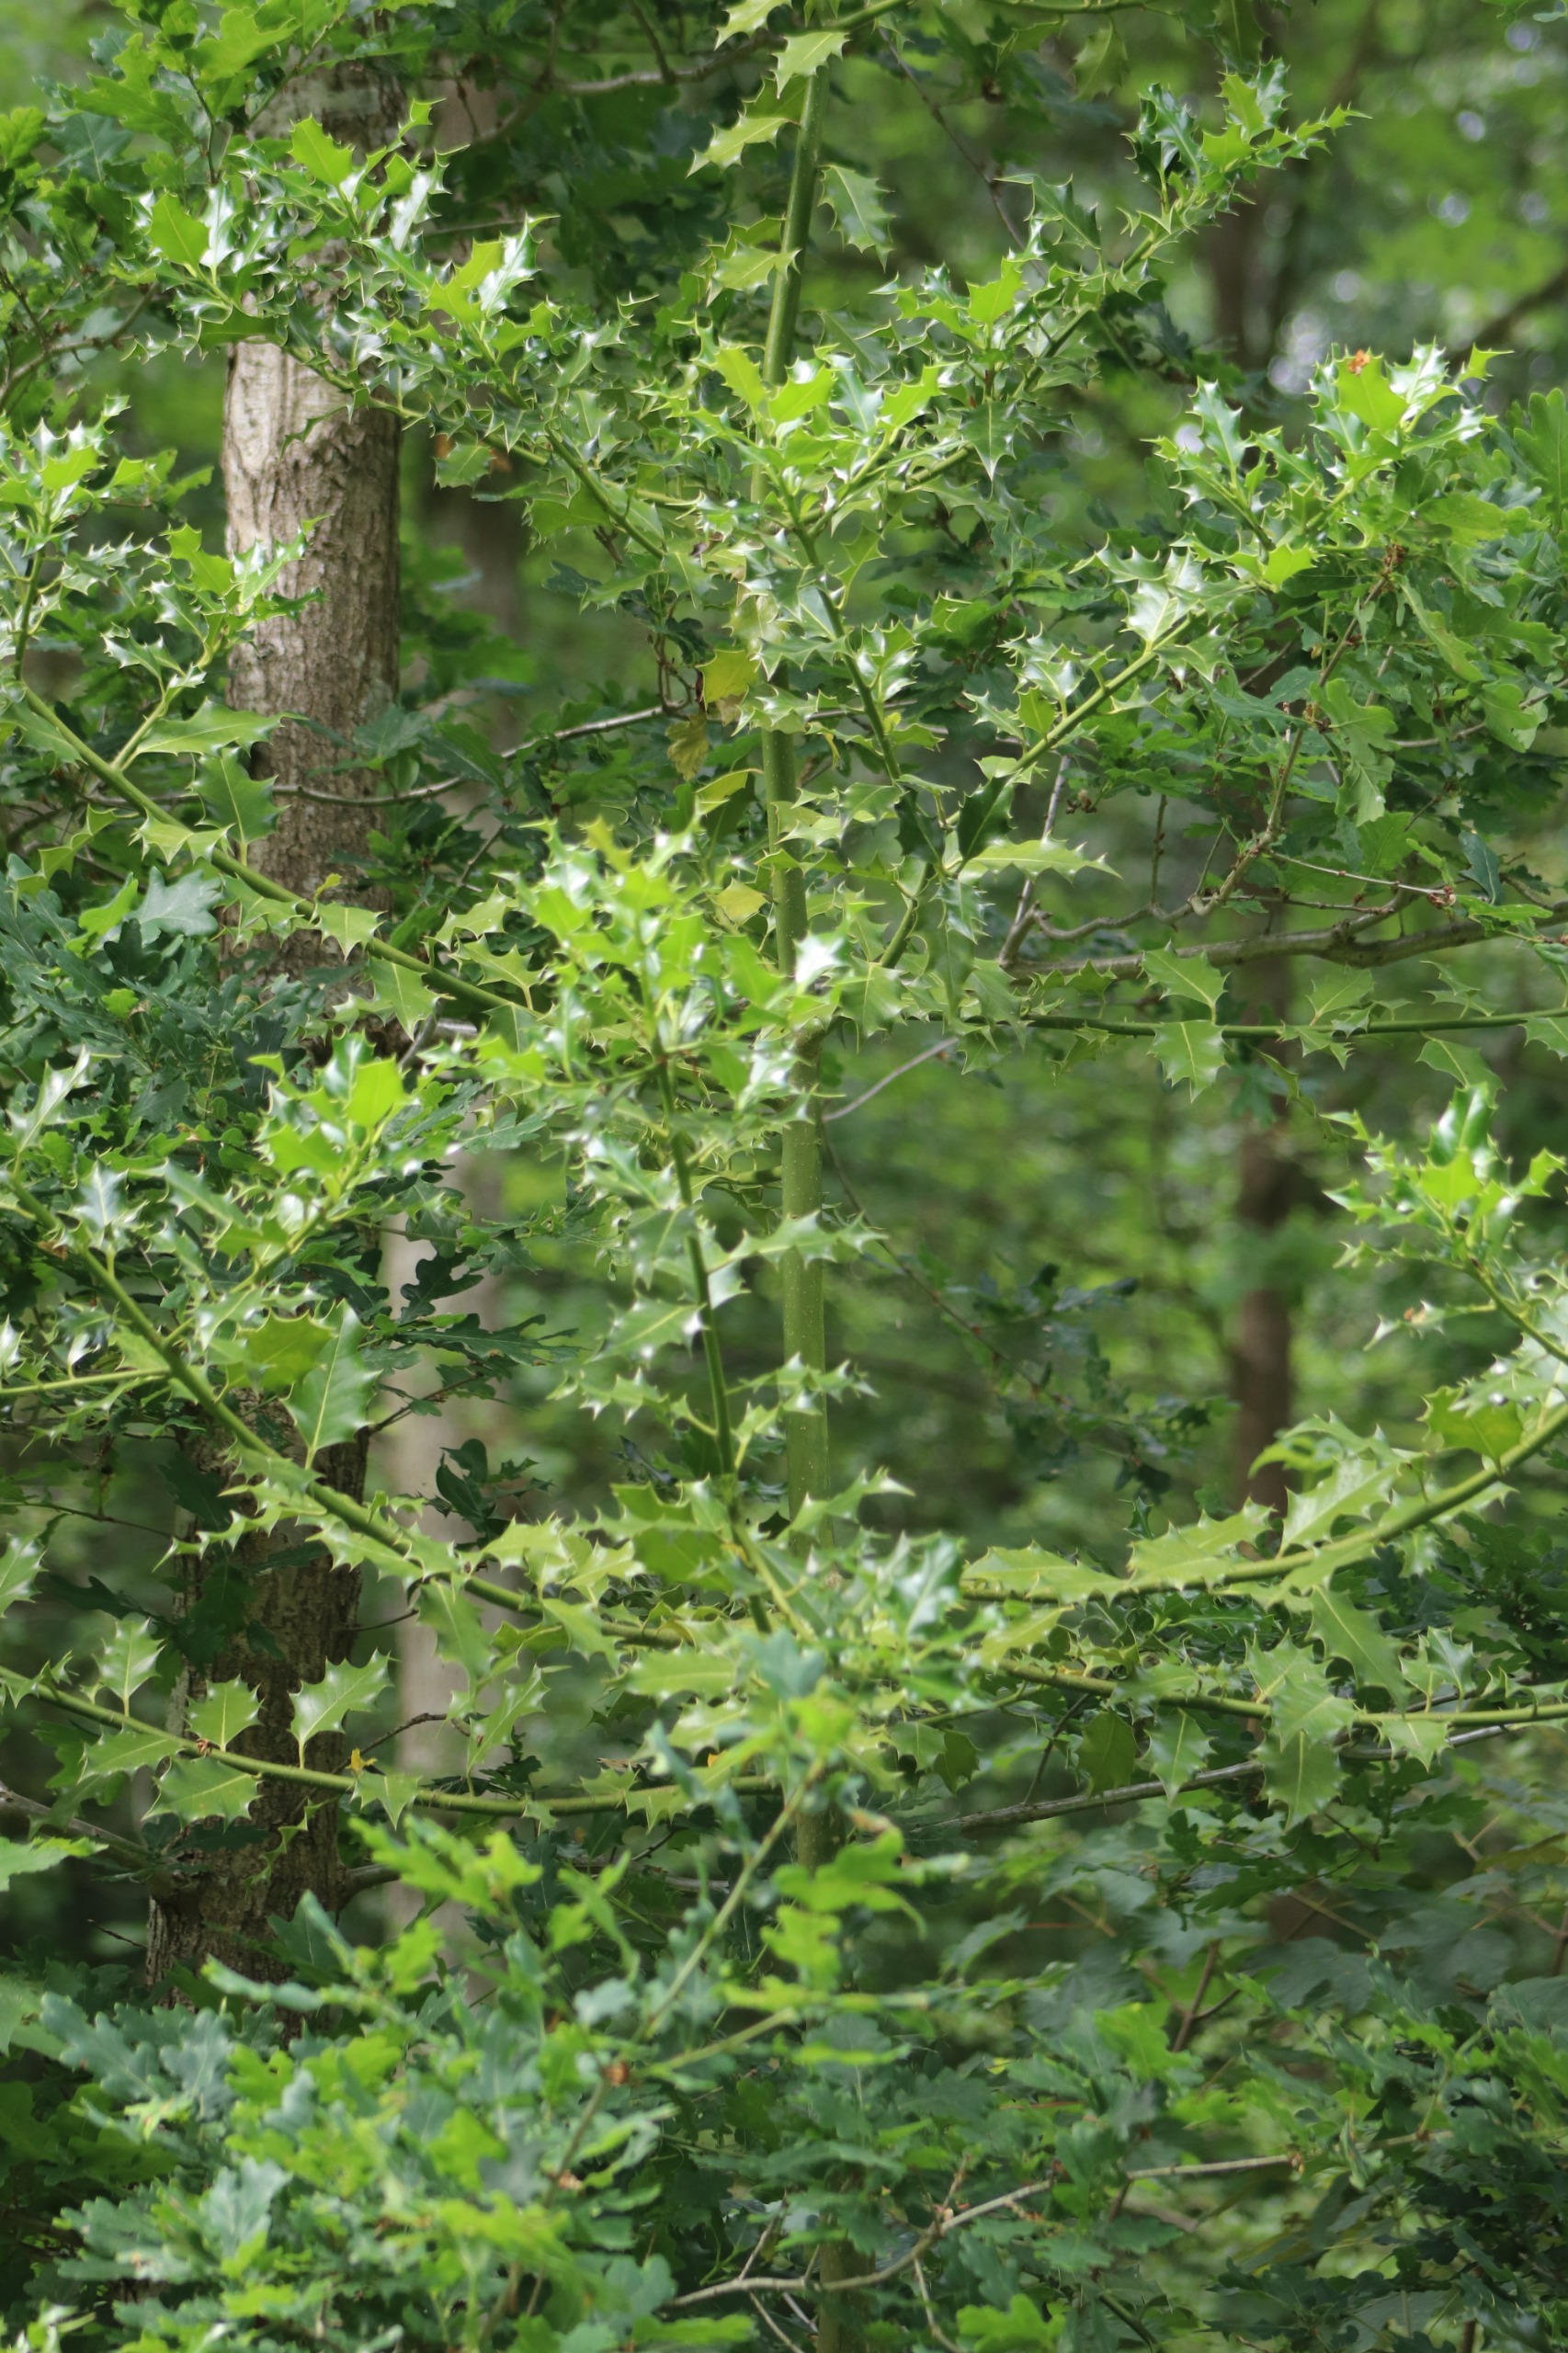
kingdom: Plantae
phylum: Tracheophyta
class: Magnoliopsida
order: Aquifoliales
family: Aquifoliaceae
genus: Ilex
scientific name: Ilex aquifolium
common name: Kristtorn
